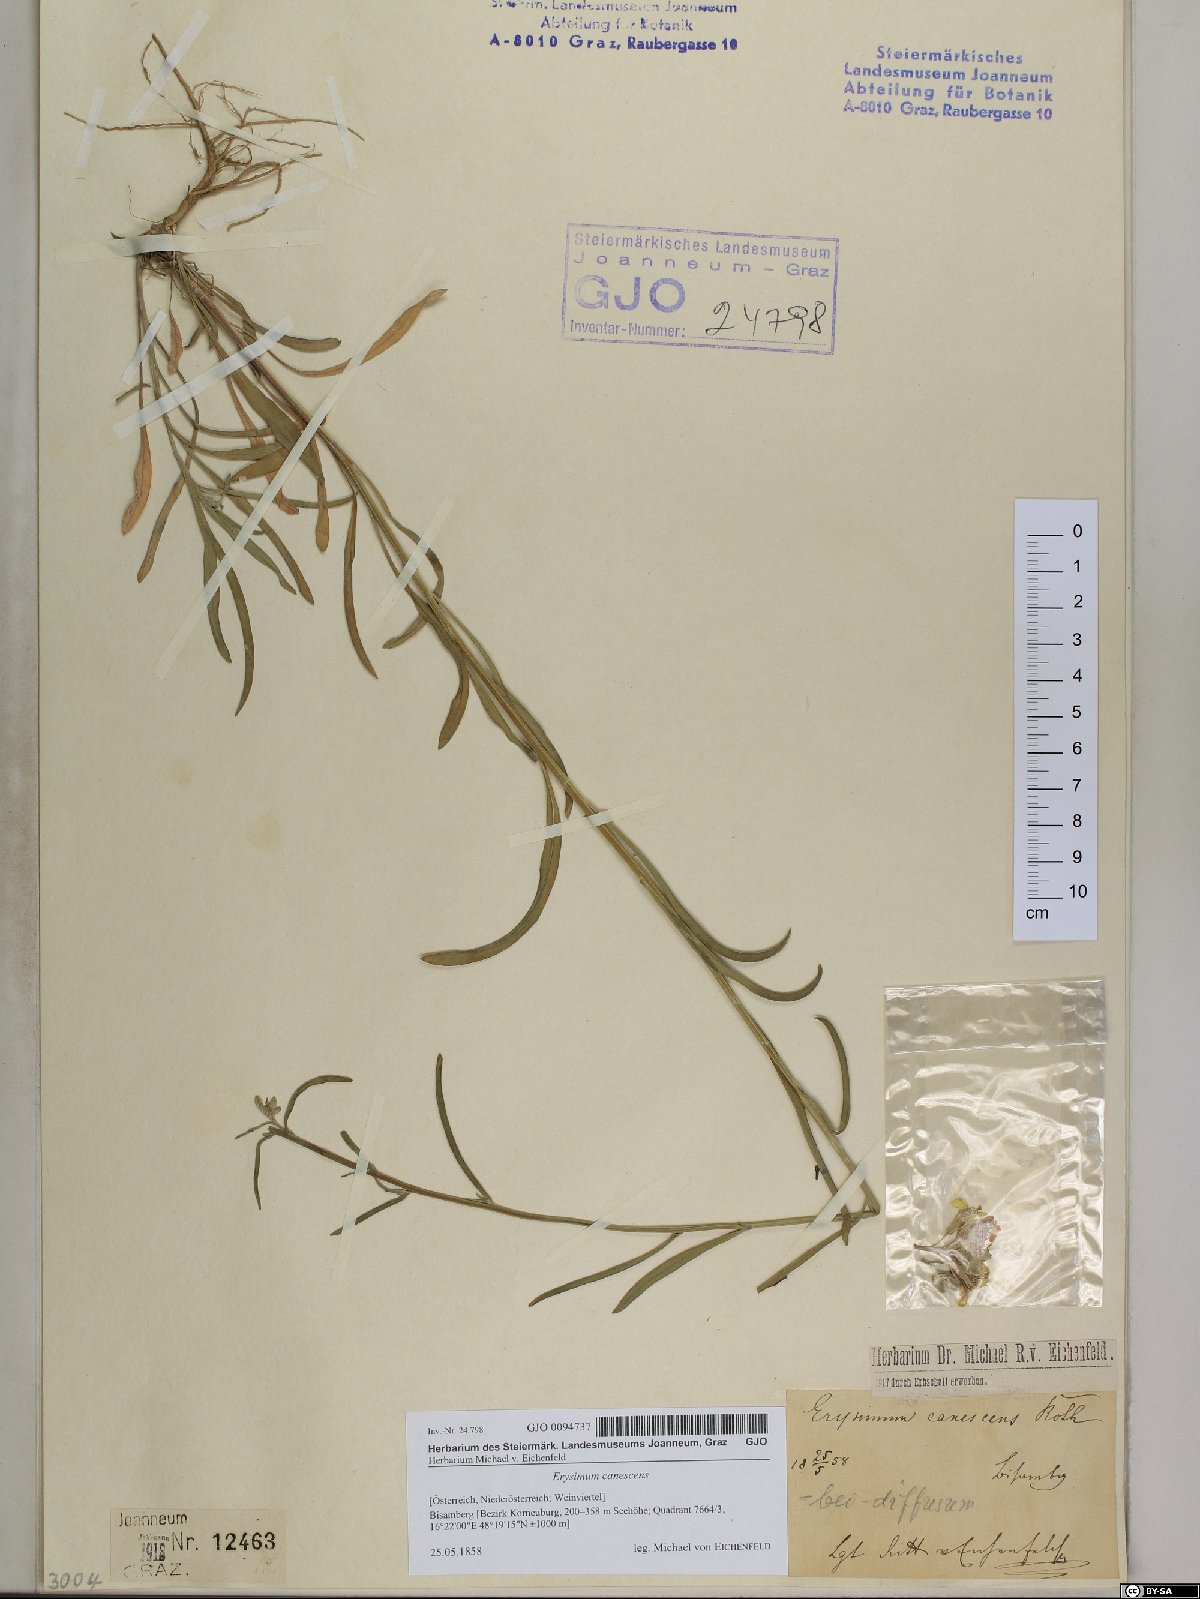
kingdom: Plantae
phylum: Tracheophyta
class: Magnoliopsida
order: Brassicales
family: Brassicaceae
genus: Erysimum
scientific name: Erysimum canescens
